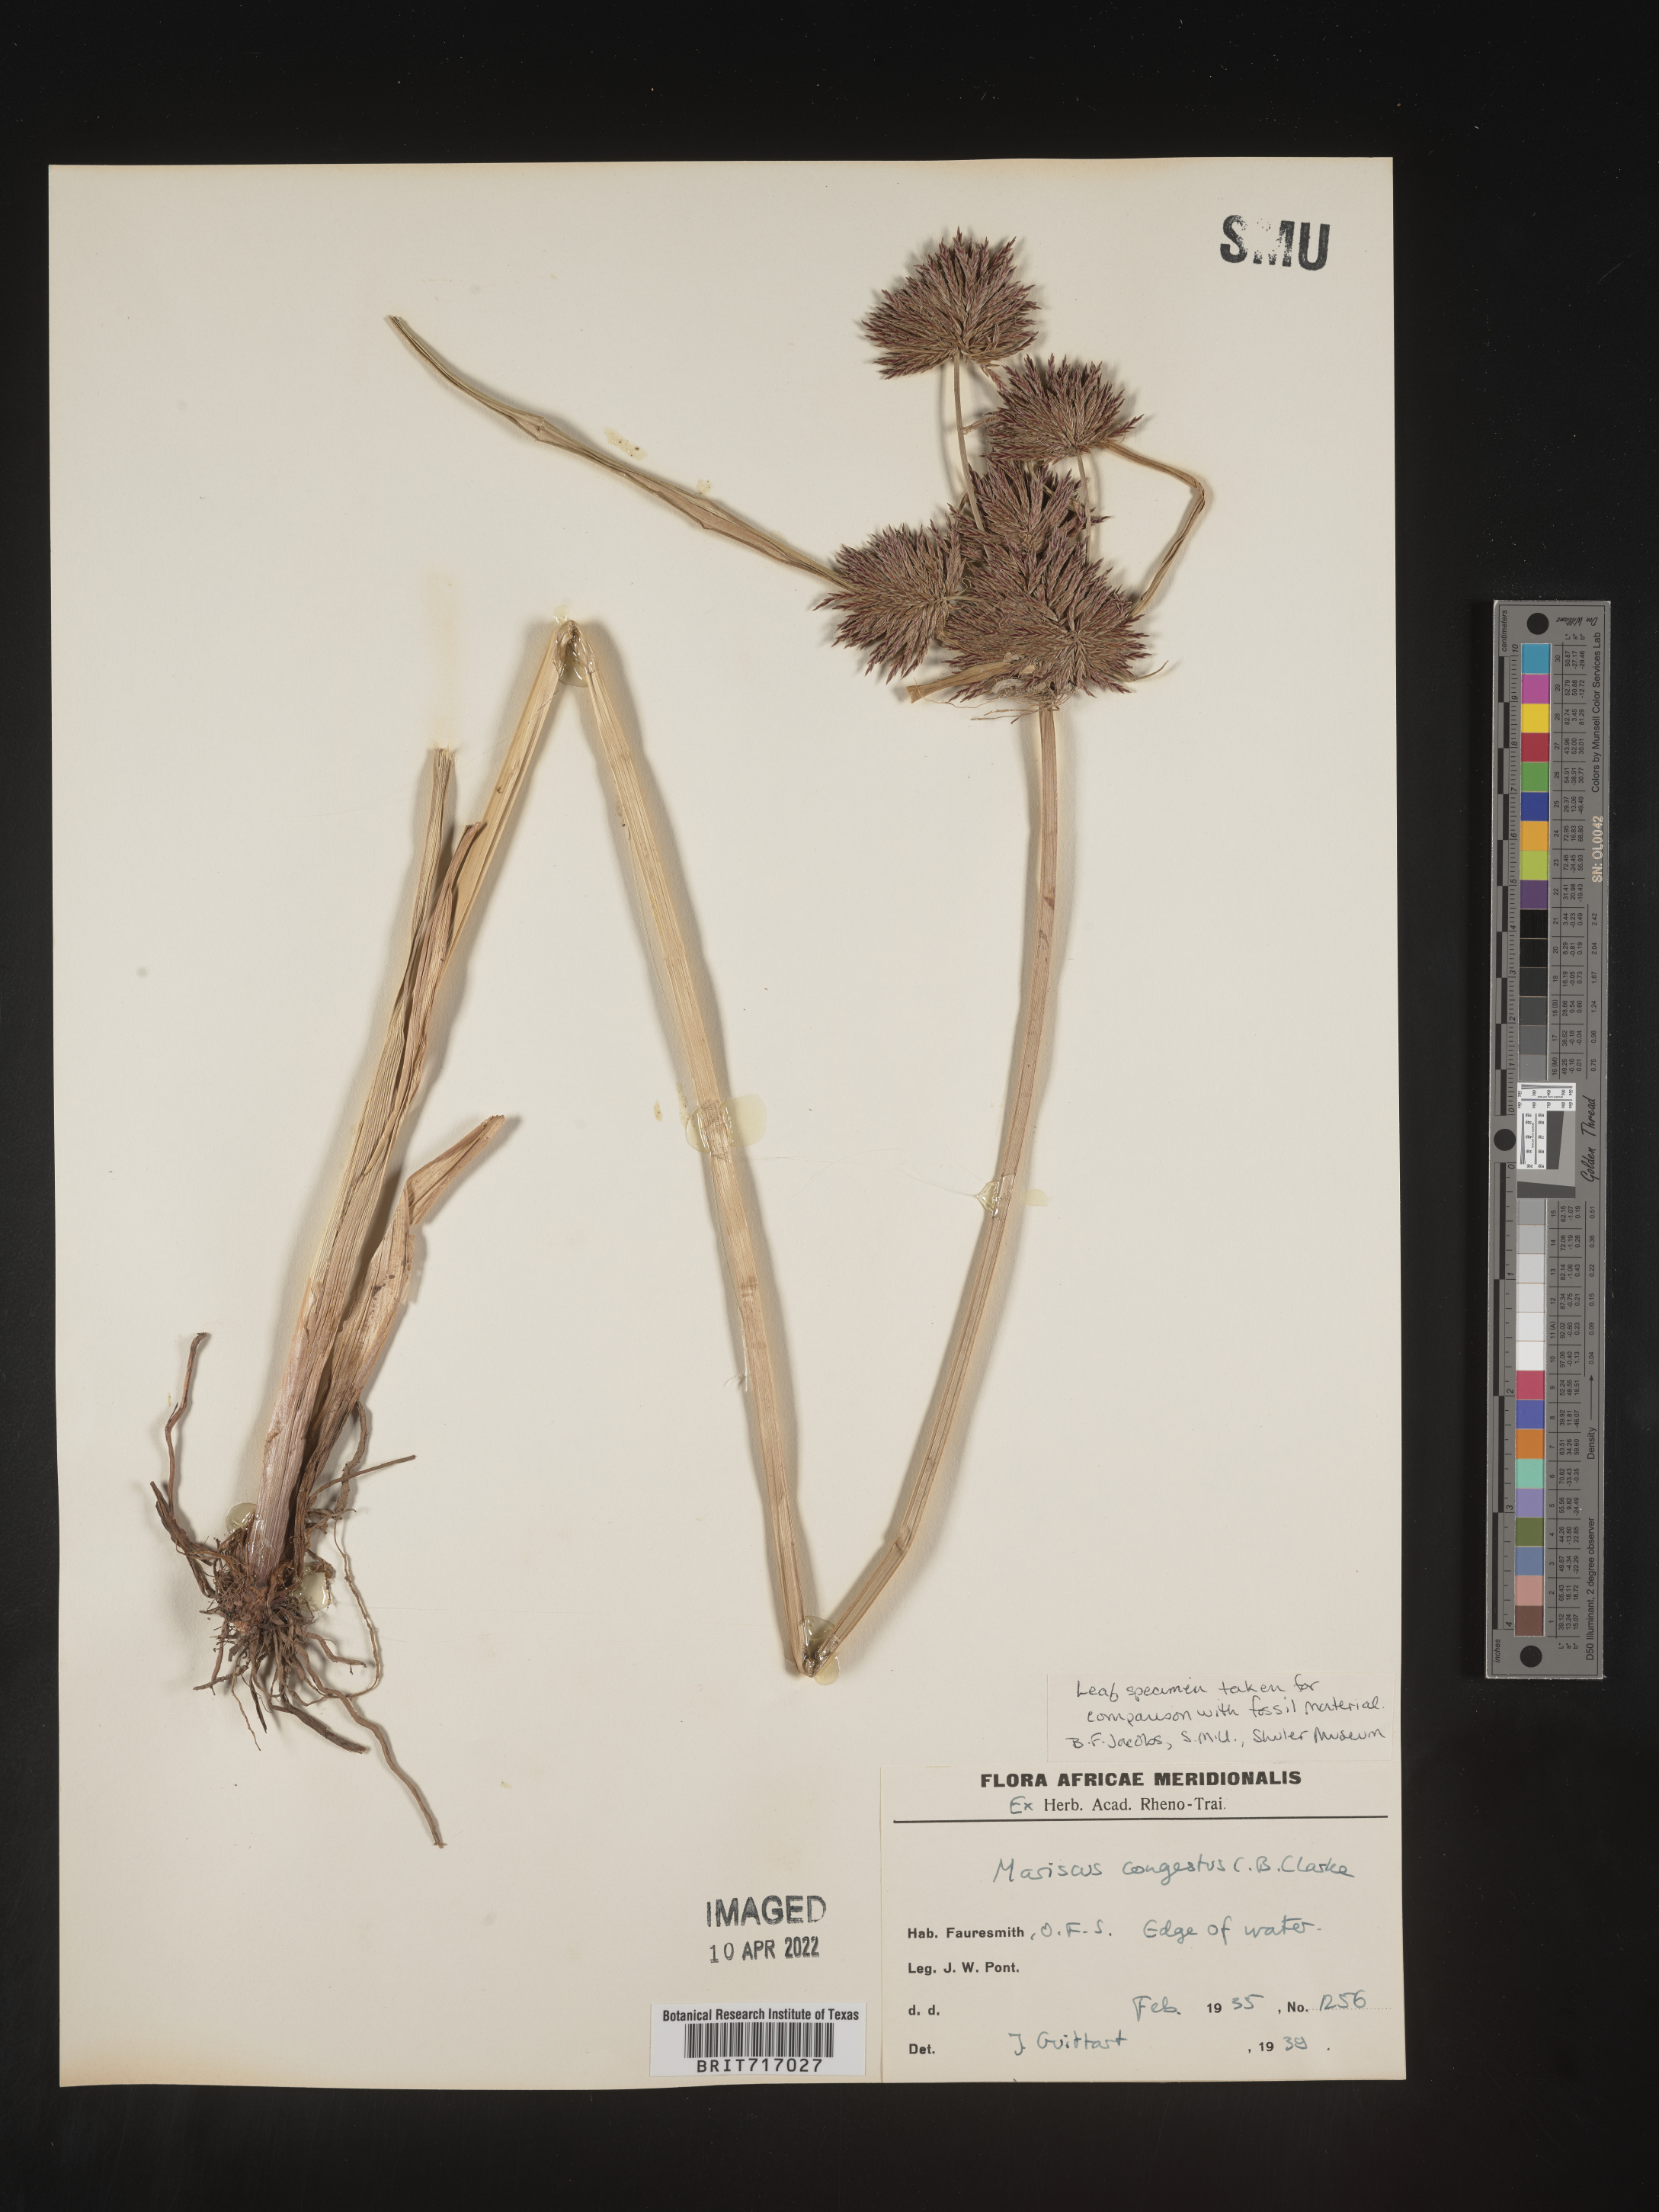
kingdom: Plantae
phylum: Tracheophyta
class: Liliopsida
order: Poales
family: Cyperaceae
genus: Cyperus
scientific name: Cyperus
